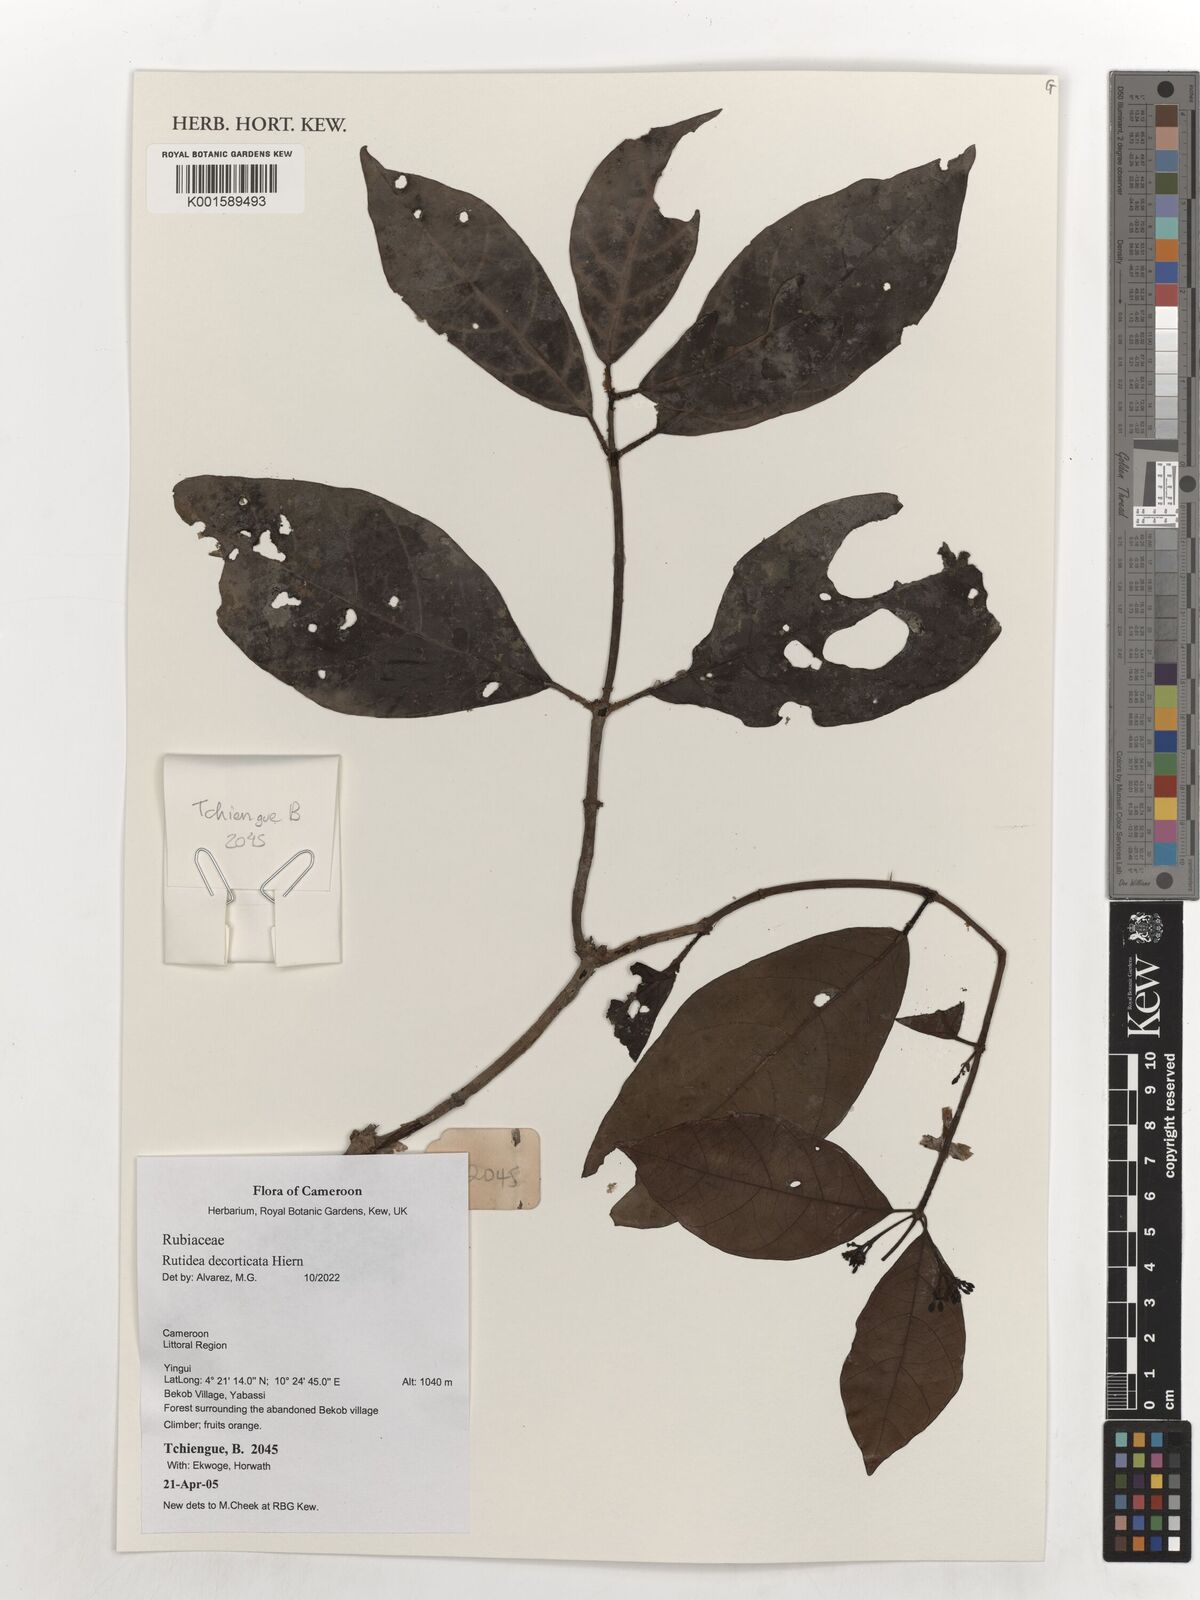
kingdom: Plantae
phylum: Tracheophyta
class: Magnoliopsida
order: Gentianales
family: Rubiaceae
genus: Rutidea
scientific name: Rutidea decorticata
